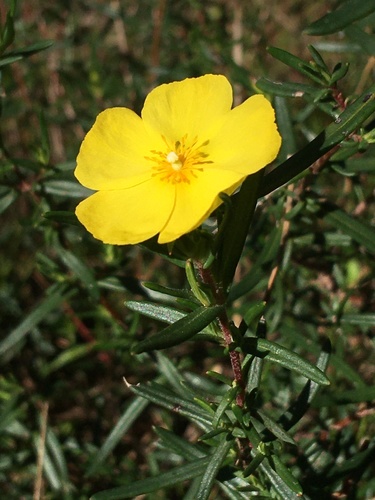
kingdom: Plantae
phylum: Tracheophyta
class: Magnoliopsida
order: Malvales
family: Cistaceae
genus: Halimium
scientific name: Halimium calycinum
